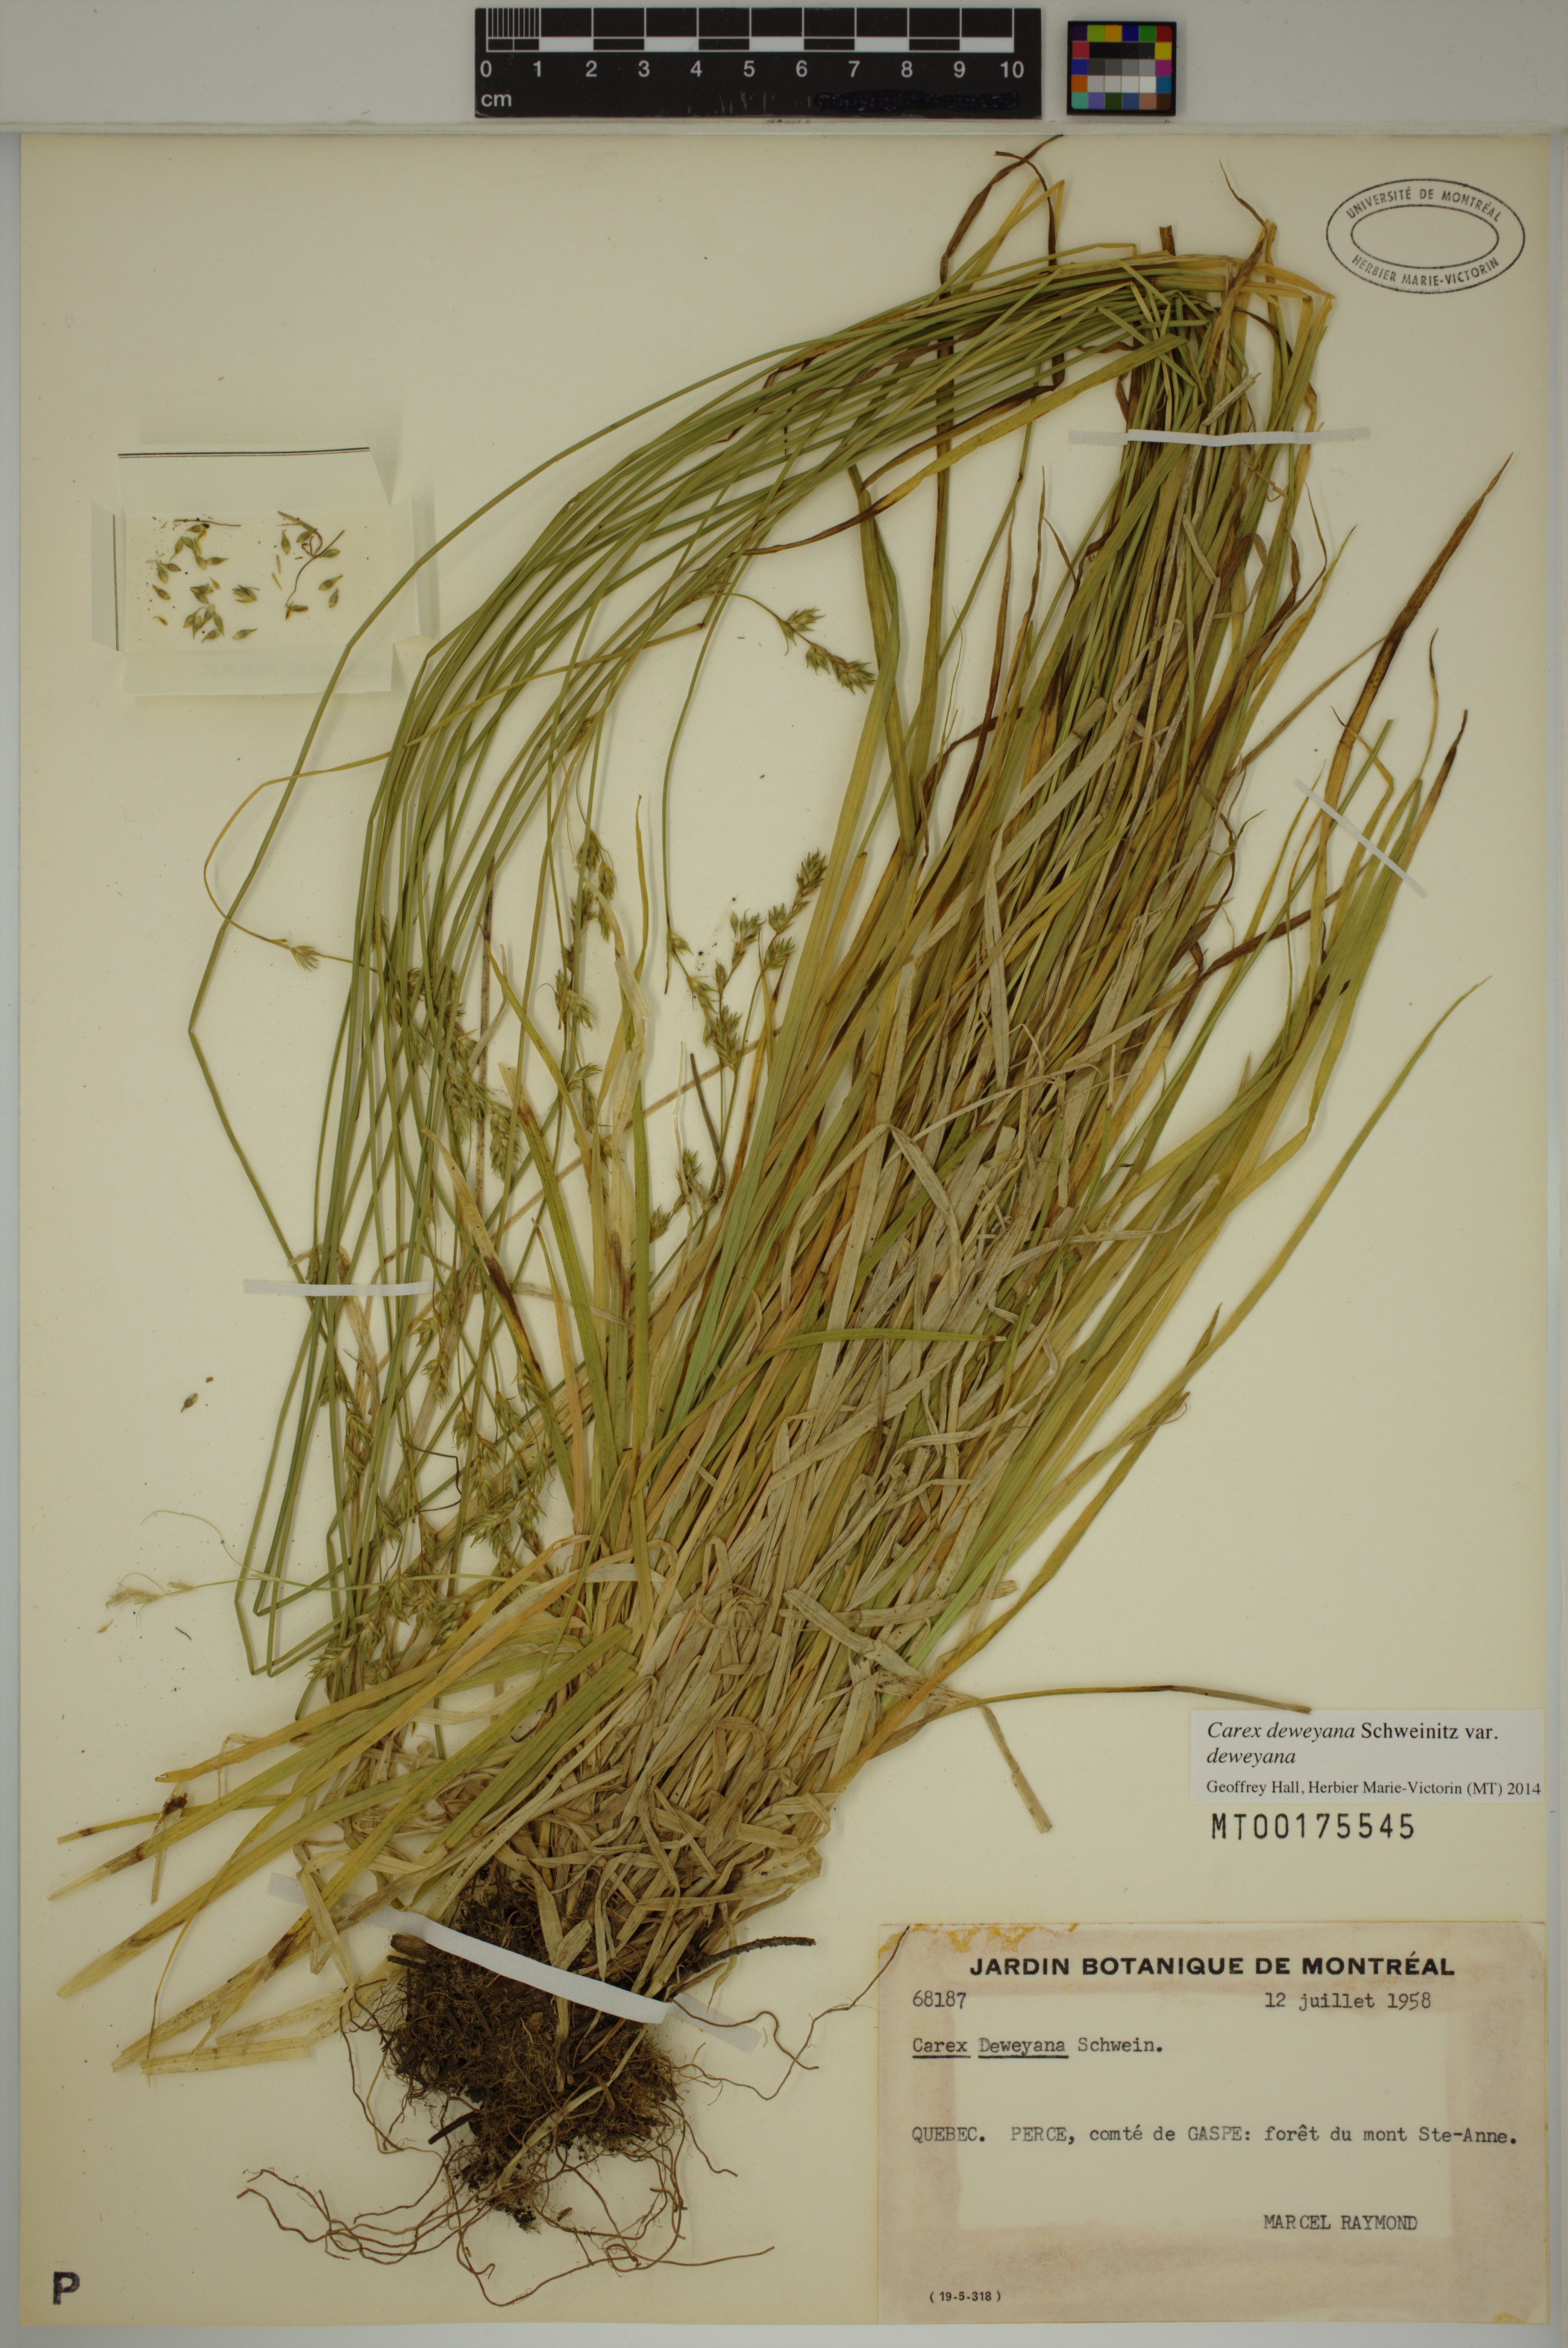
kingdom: Plantae
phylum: Tracheophyta
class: Liliopsida
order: Poales
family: Cyperaceae
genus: Carex
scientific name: Carex deweyana
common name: Dewey's sedge
